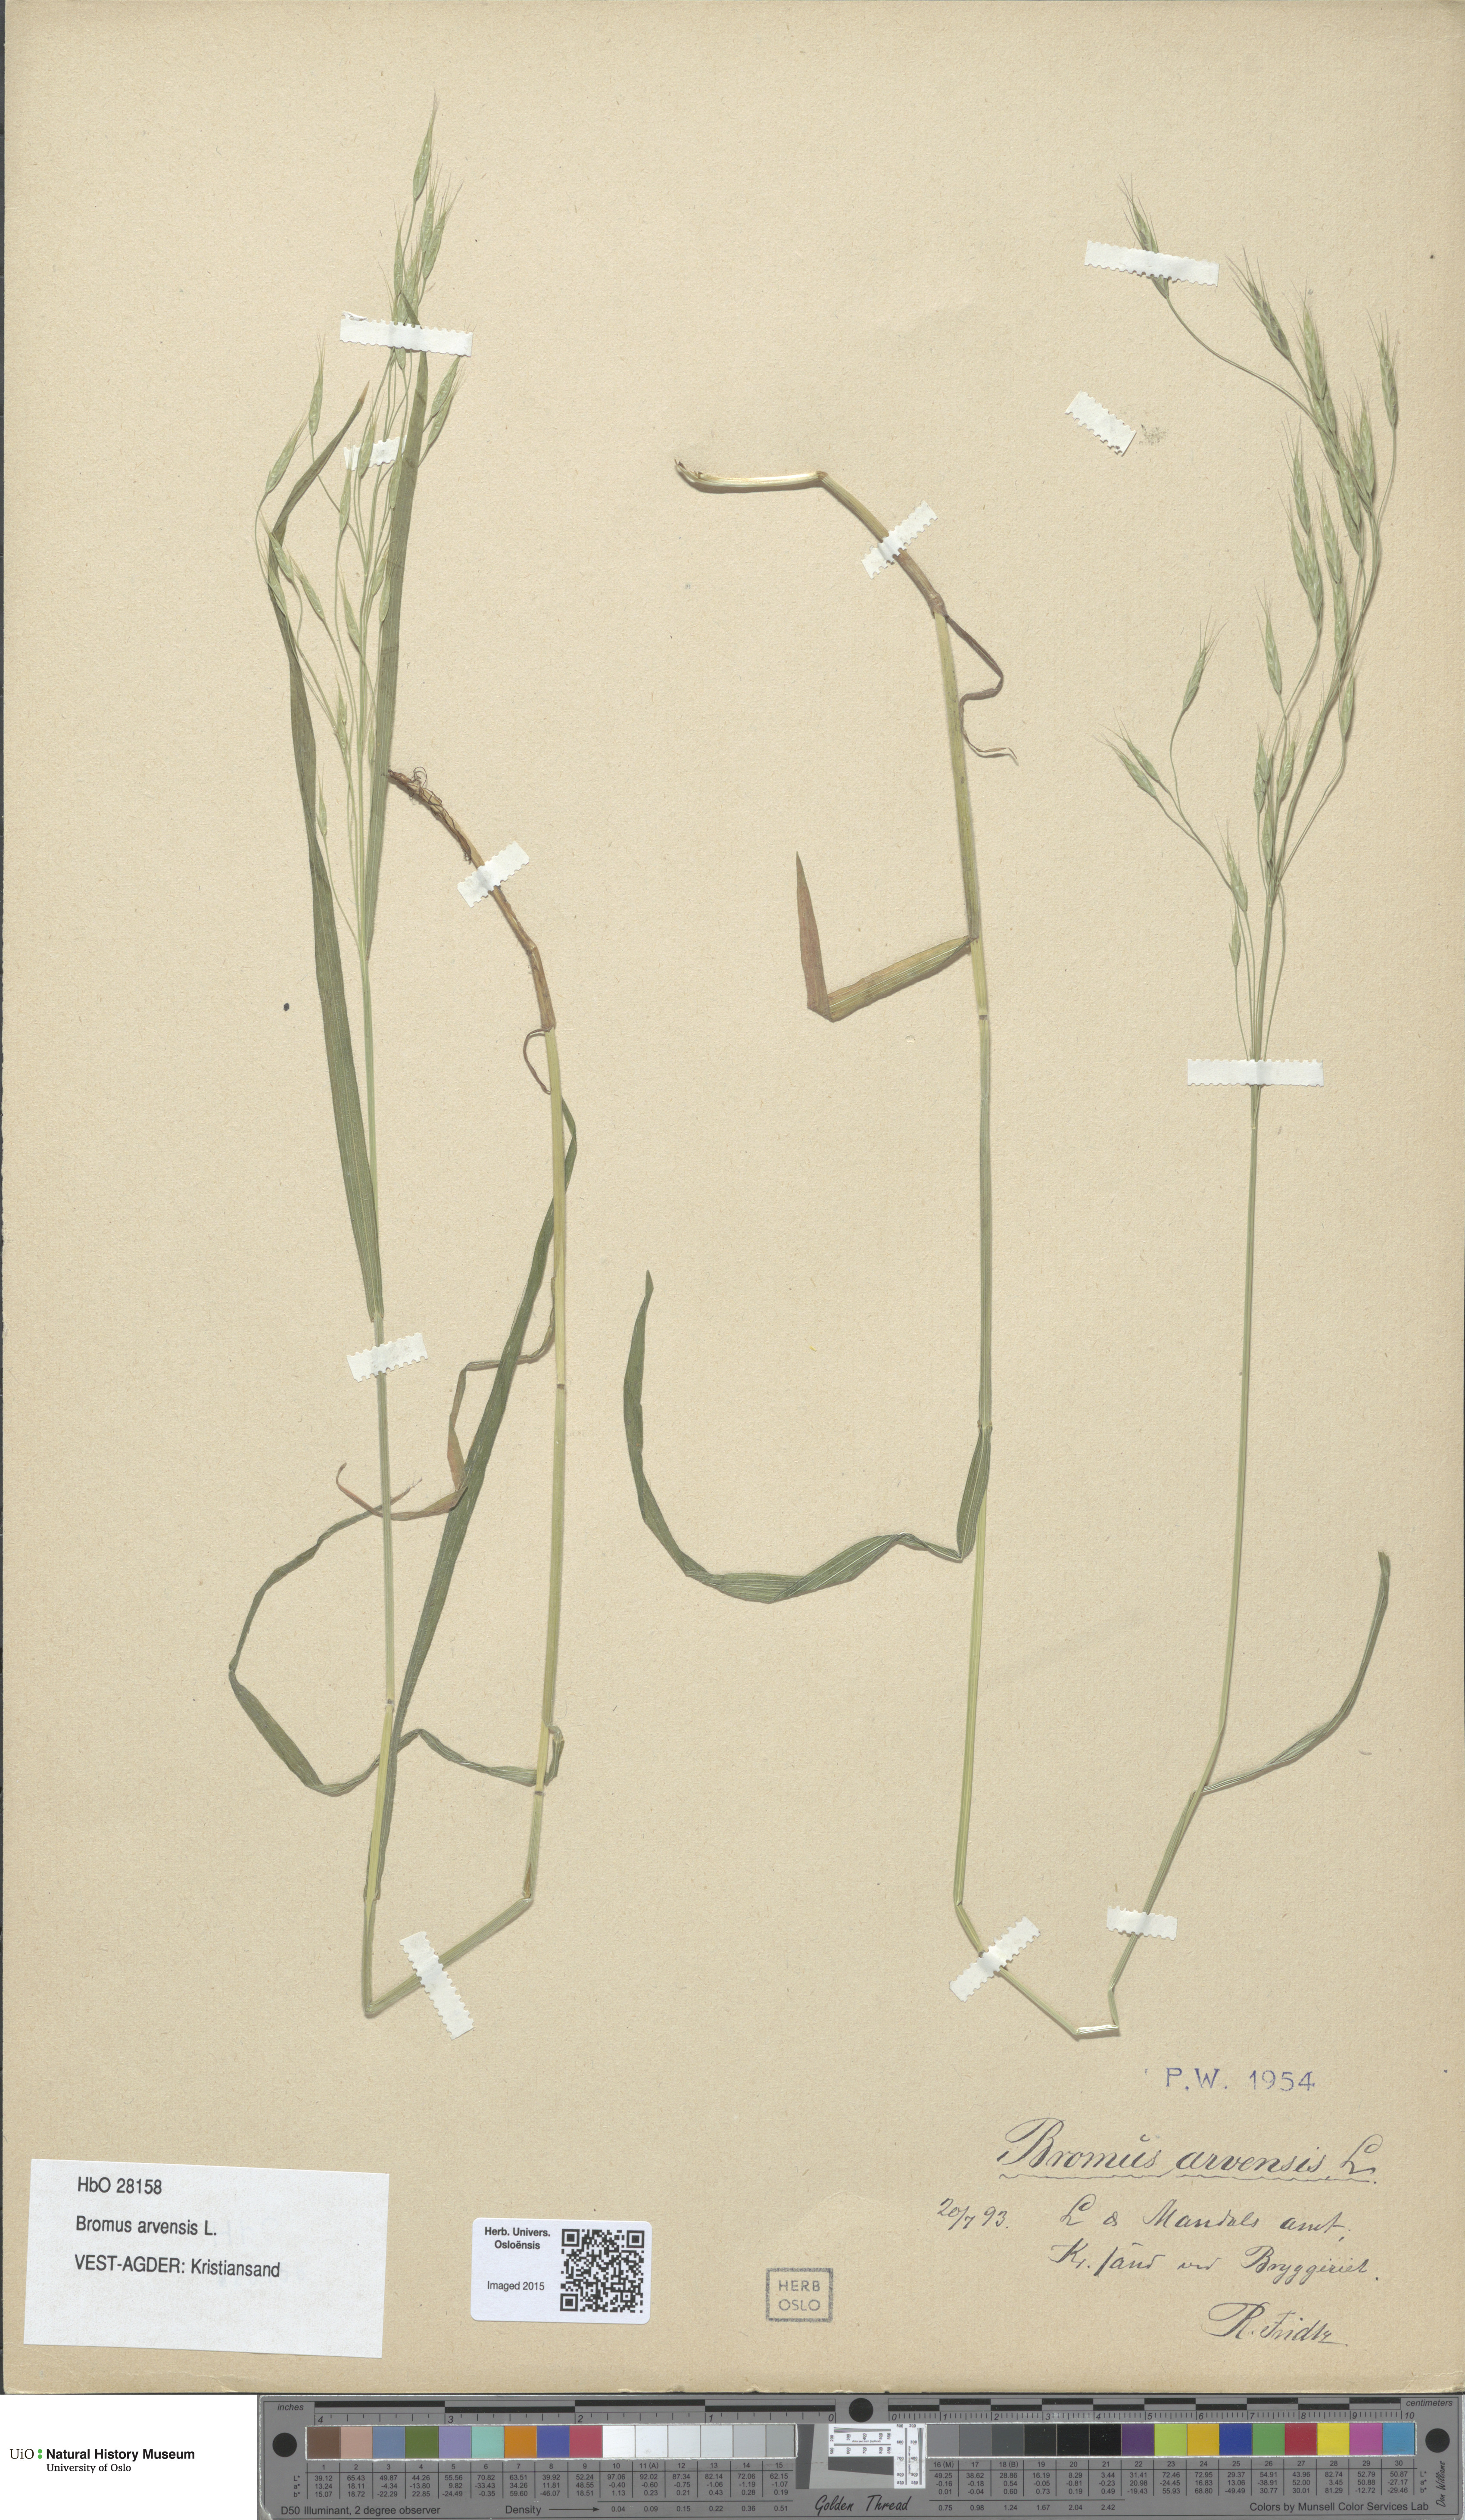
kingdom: Plantae
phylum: Tracheophyta
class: Liliopsida
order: Poales
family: Poaceae
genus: Bromus
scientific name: Bromus arvensis
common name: Field brome
